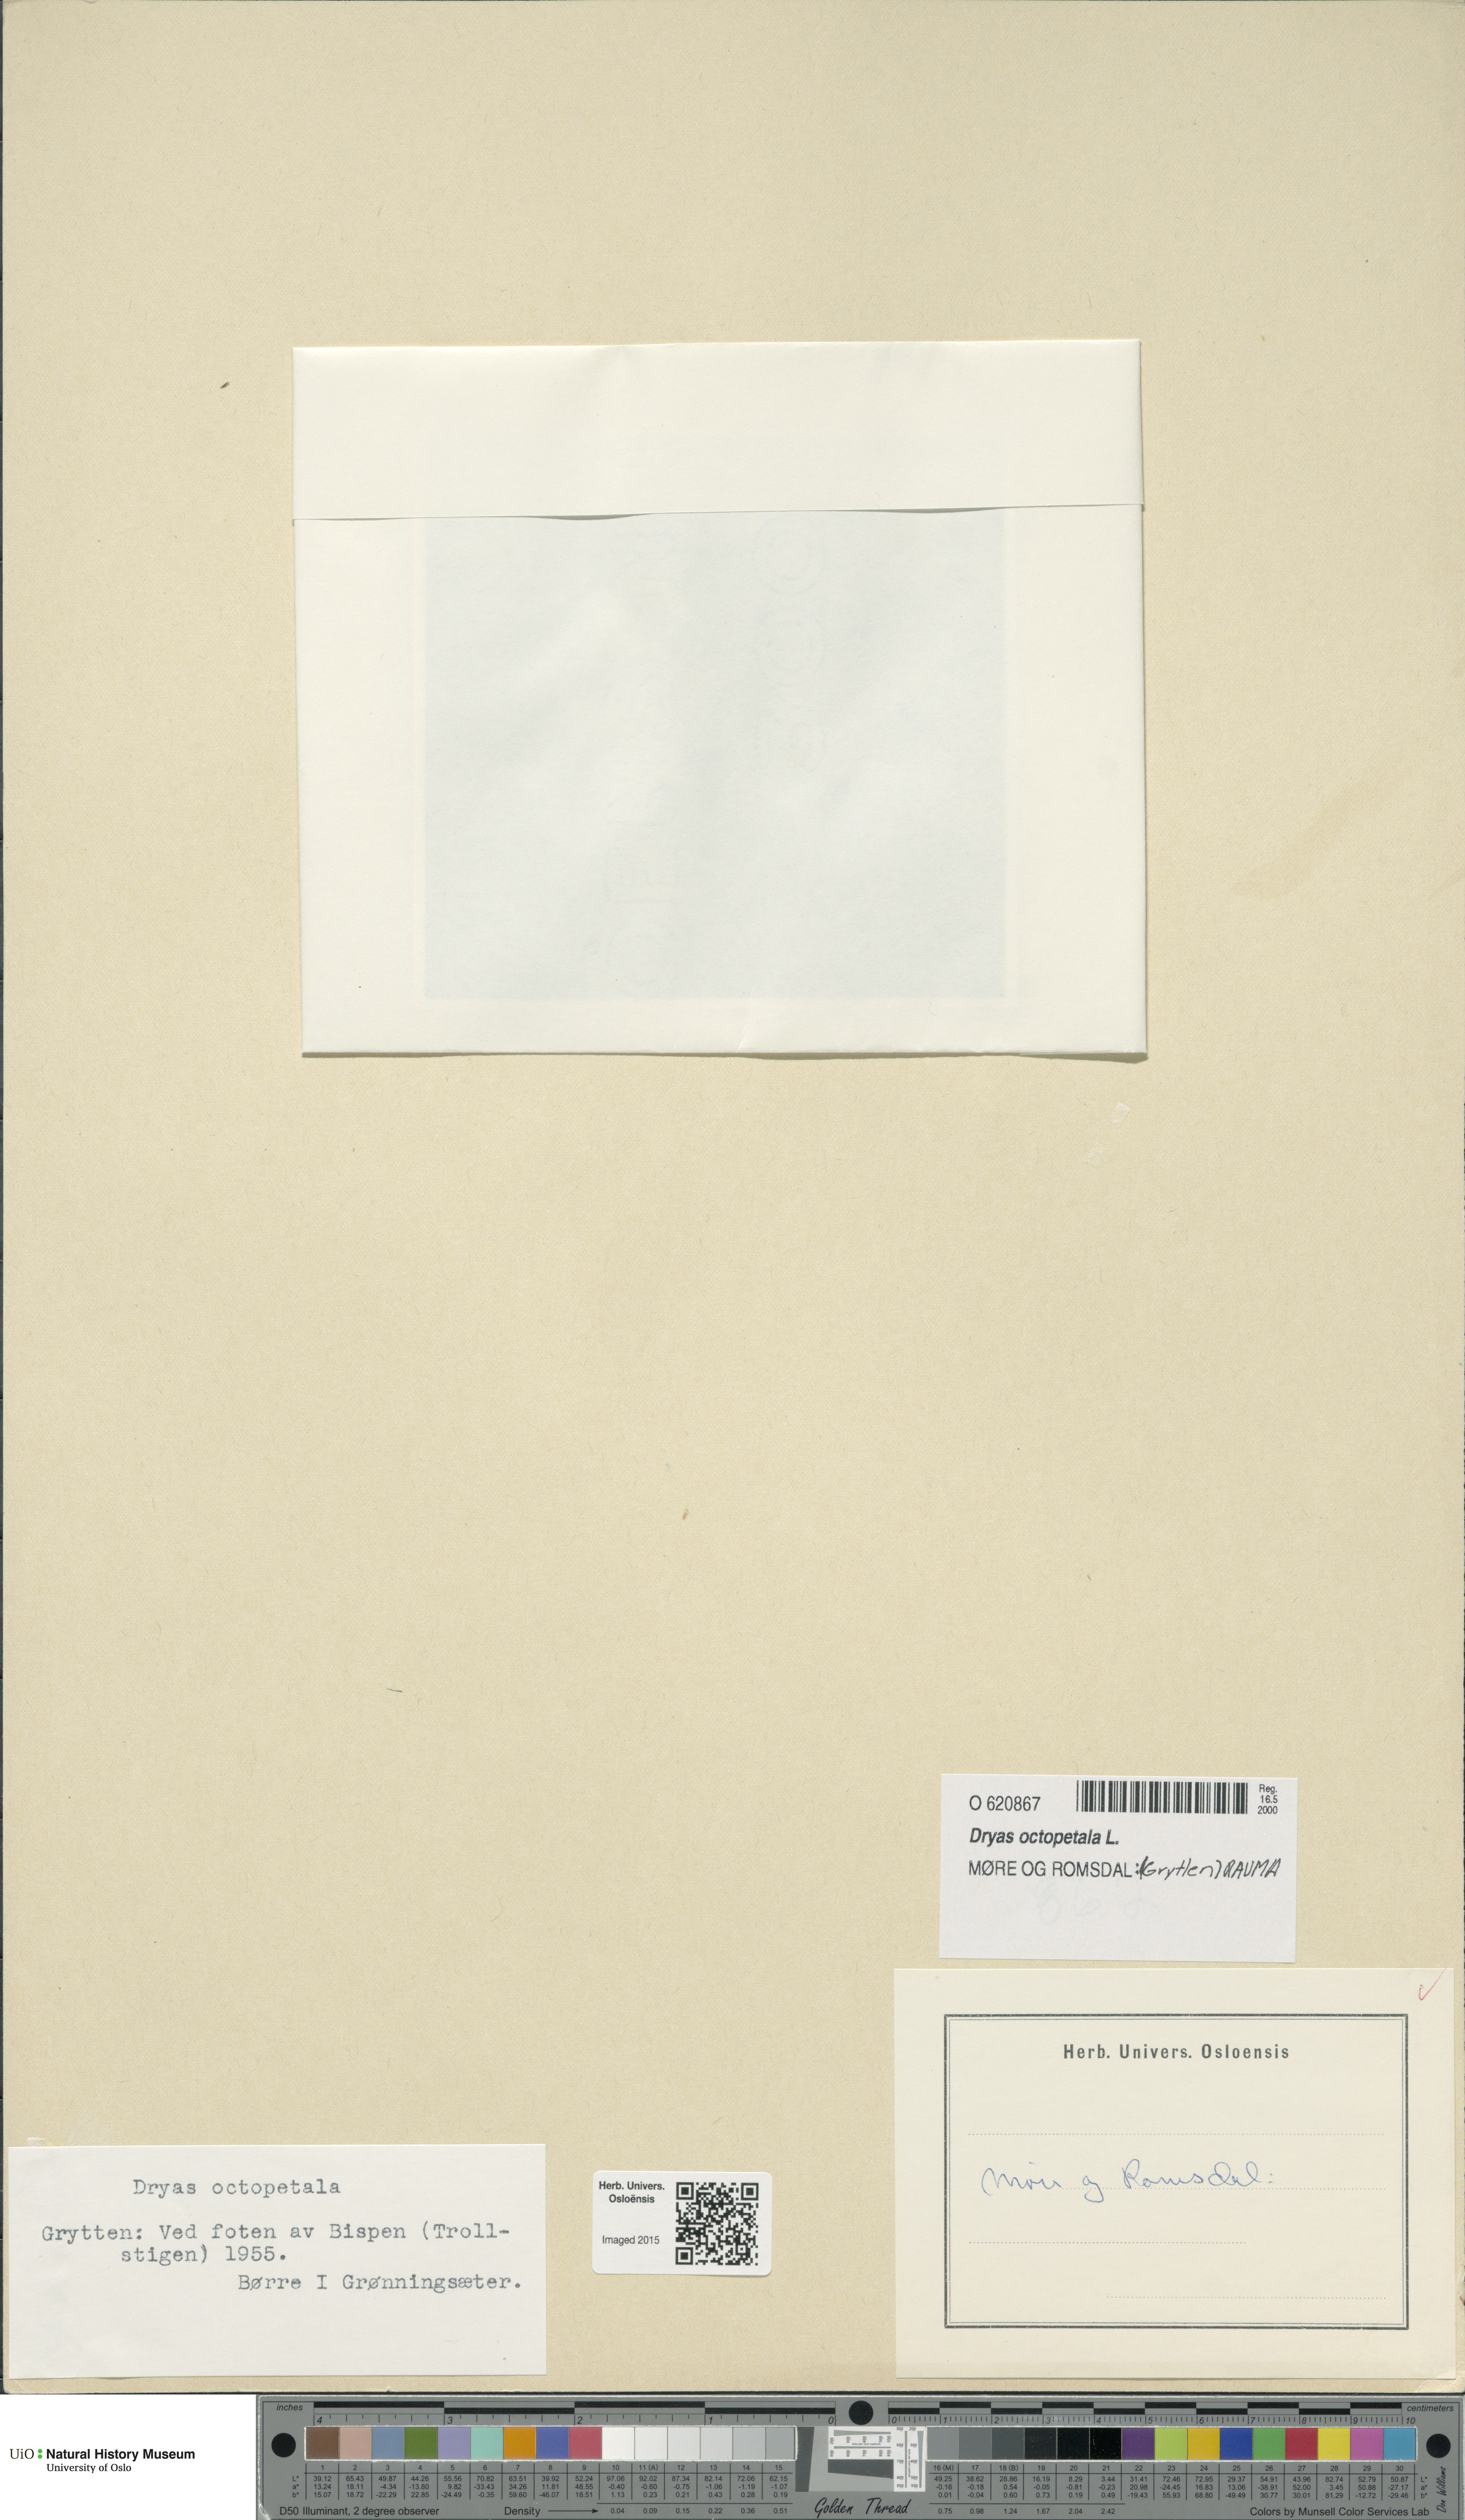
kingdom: Plantae
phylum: Tracheophyta
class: Magnoliopsida
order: Rosales
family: Rosaceae
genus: Dryas
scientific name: Dryas octopetala
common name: Eight-petal mountain-avens
